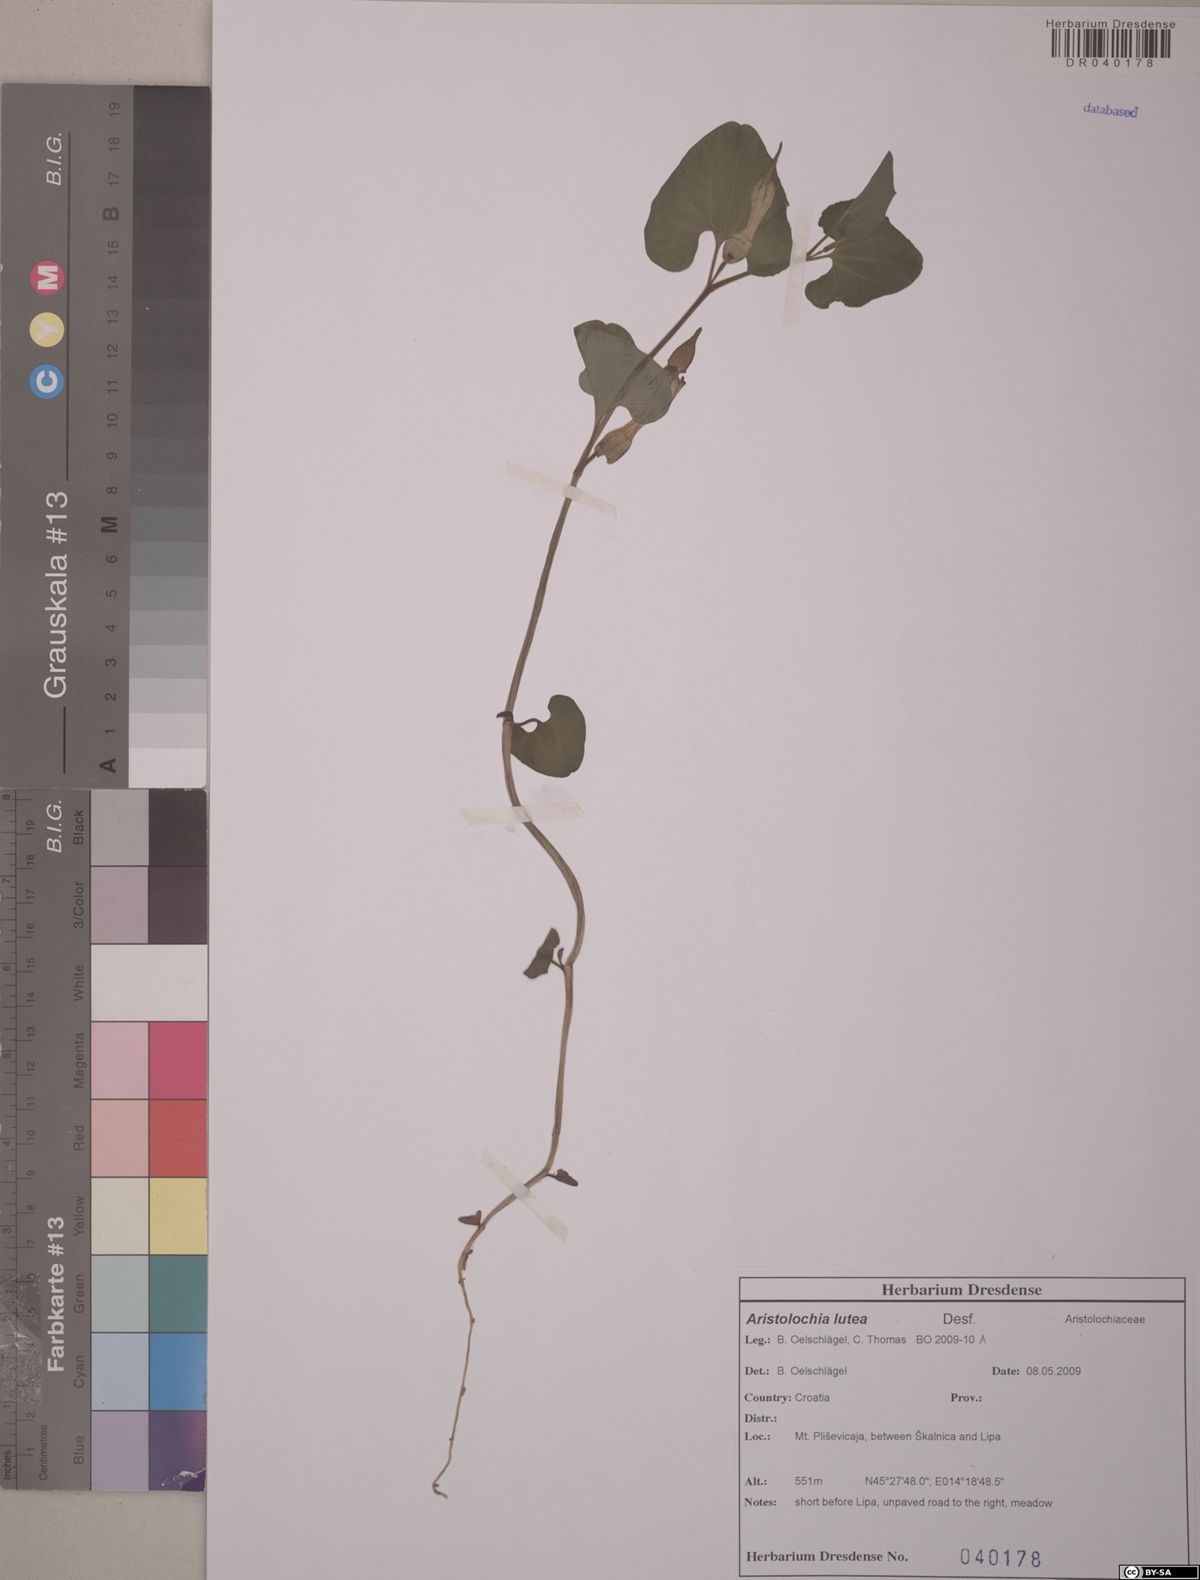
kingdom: Plantae
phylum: Tracheophyta
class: Magnoliopsida
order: Piperales
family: Aristolochiaceae
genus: Aristolochia
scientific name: Aristolochia lutea
